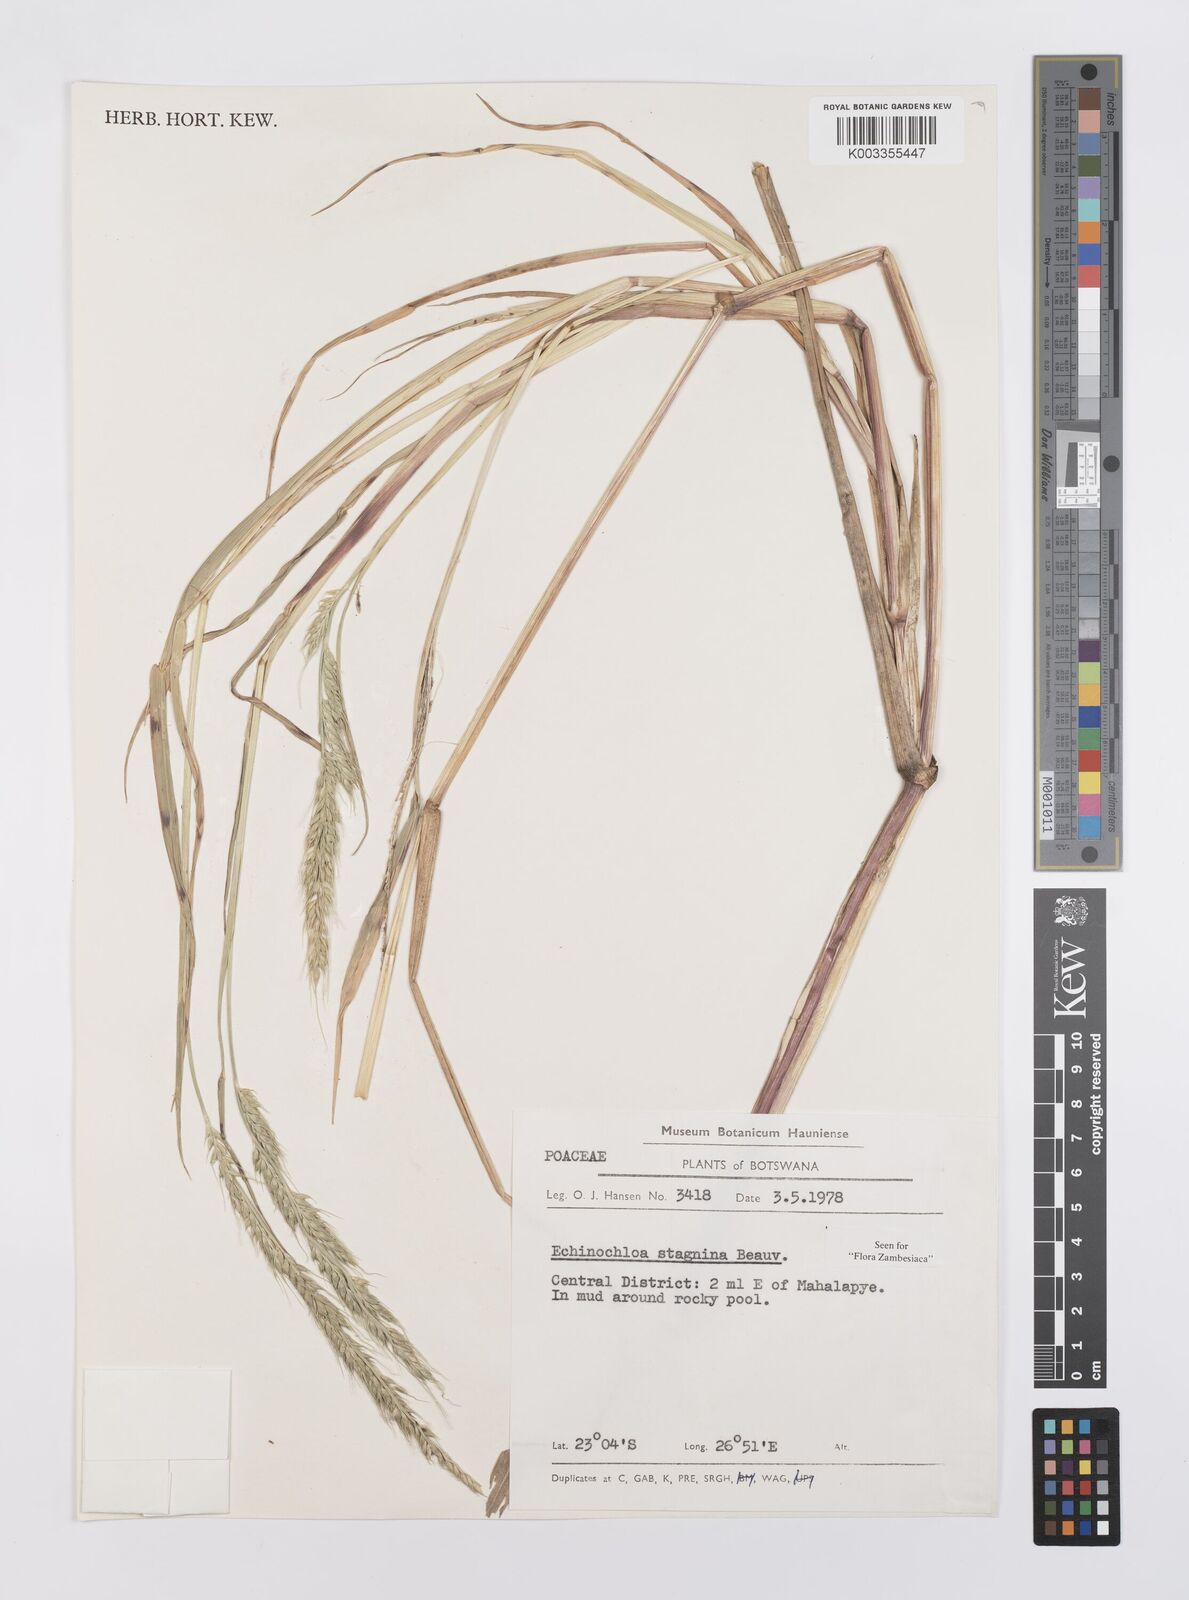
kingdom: Plantae
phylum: Tracheophyta
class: Liliopsida
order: Poales
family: Poaceae
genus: Echinochloa
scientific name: Echinochloa stagnina
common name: Burgu grass
